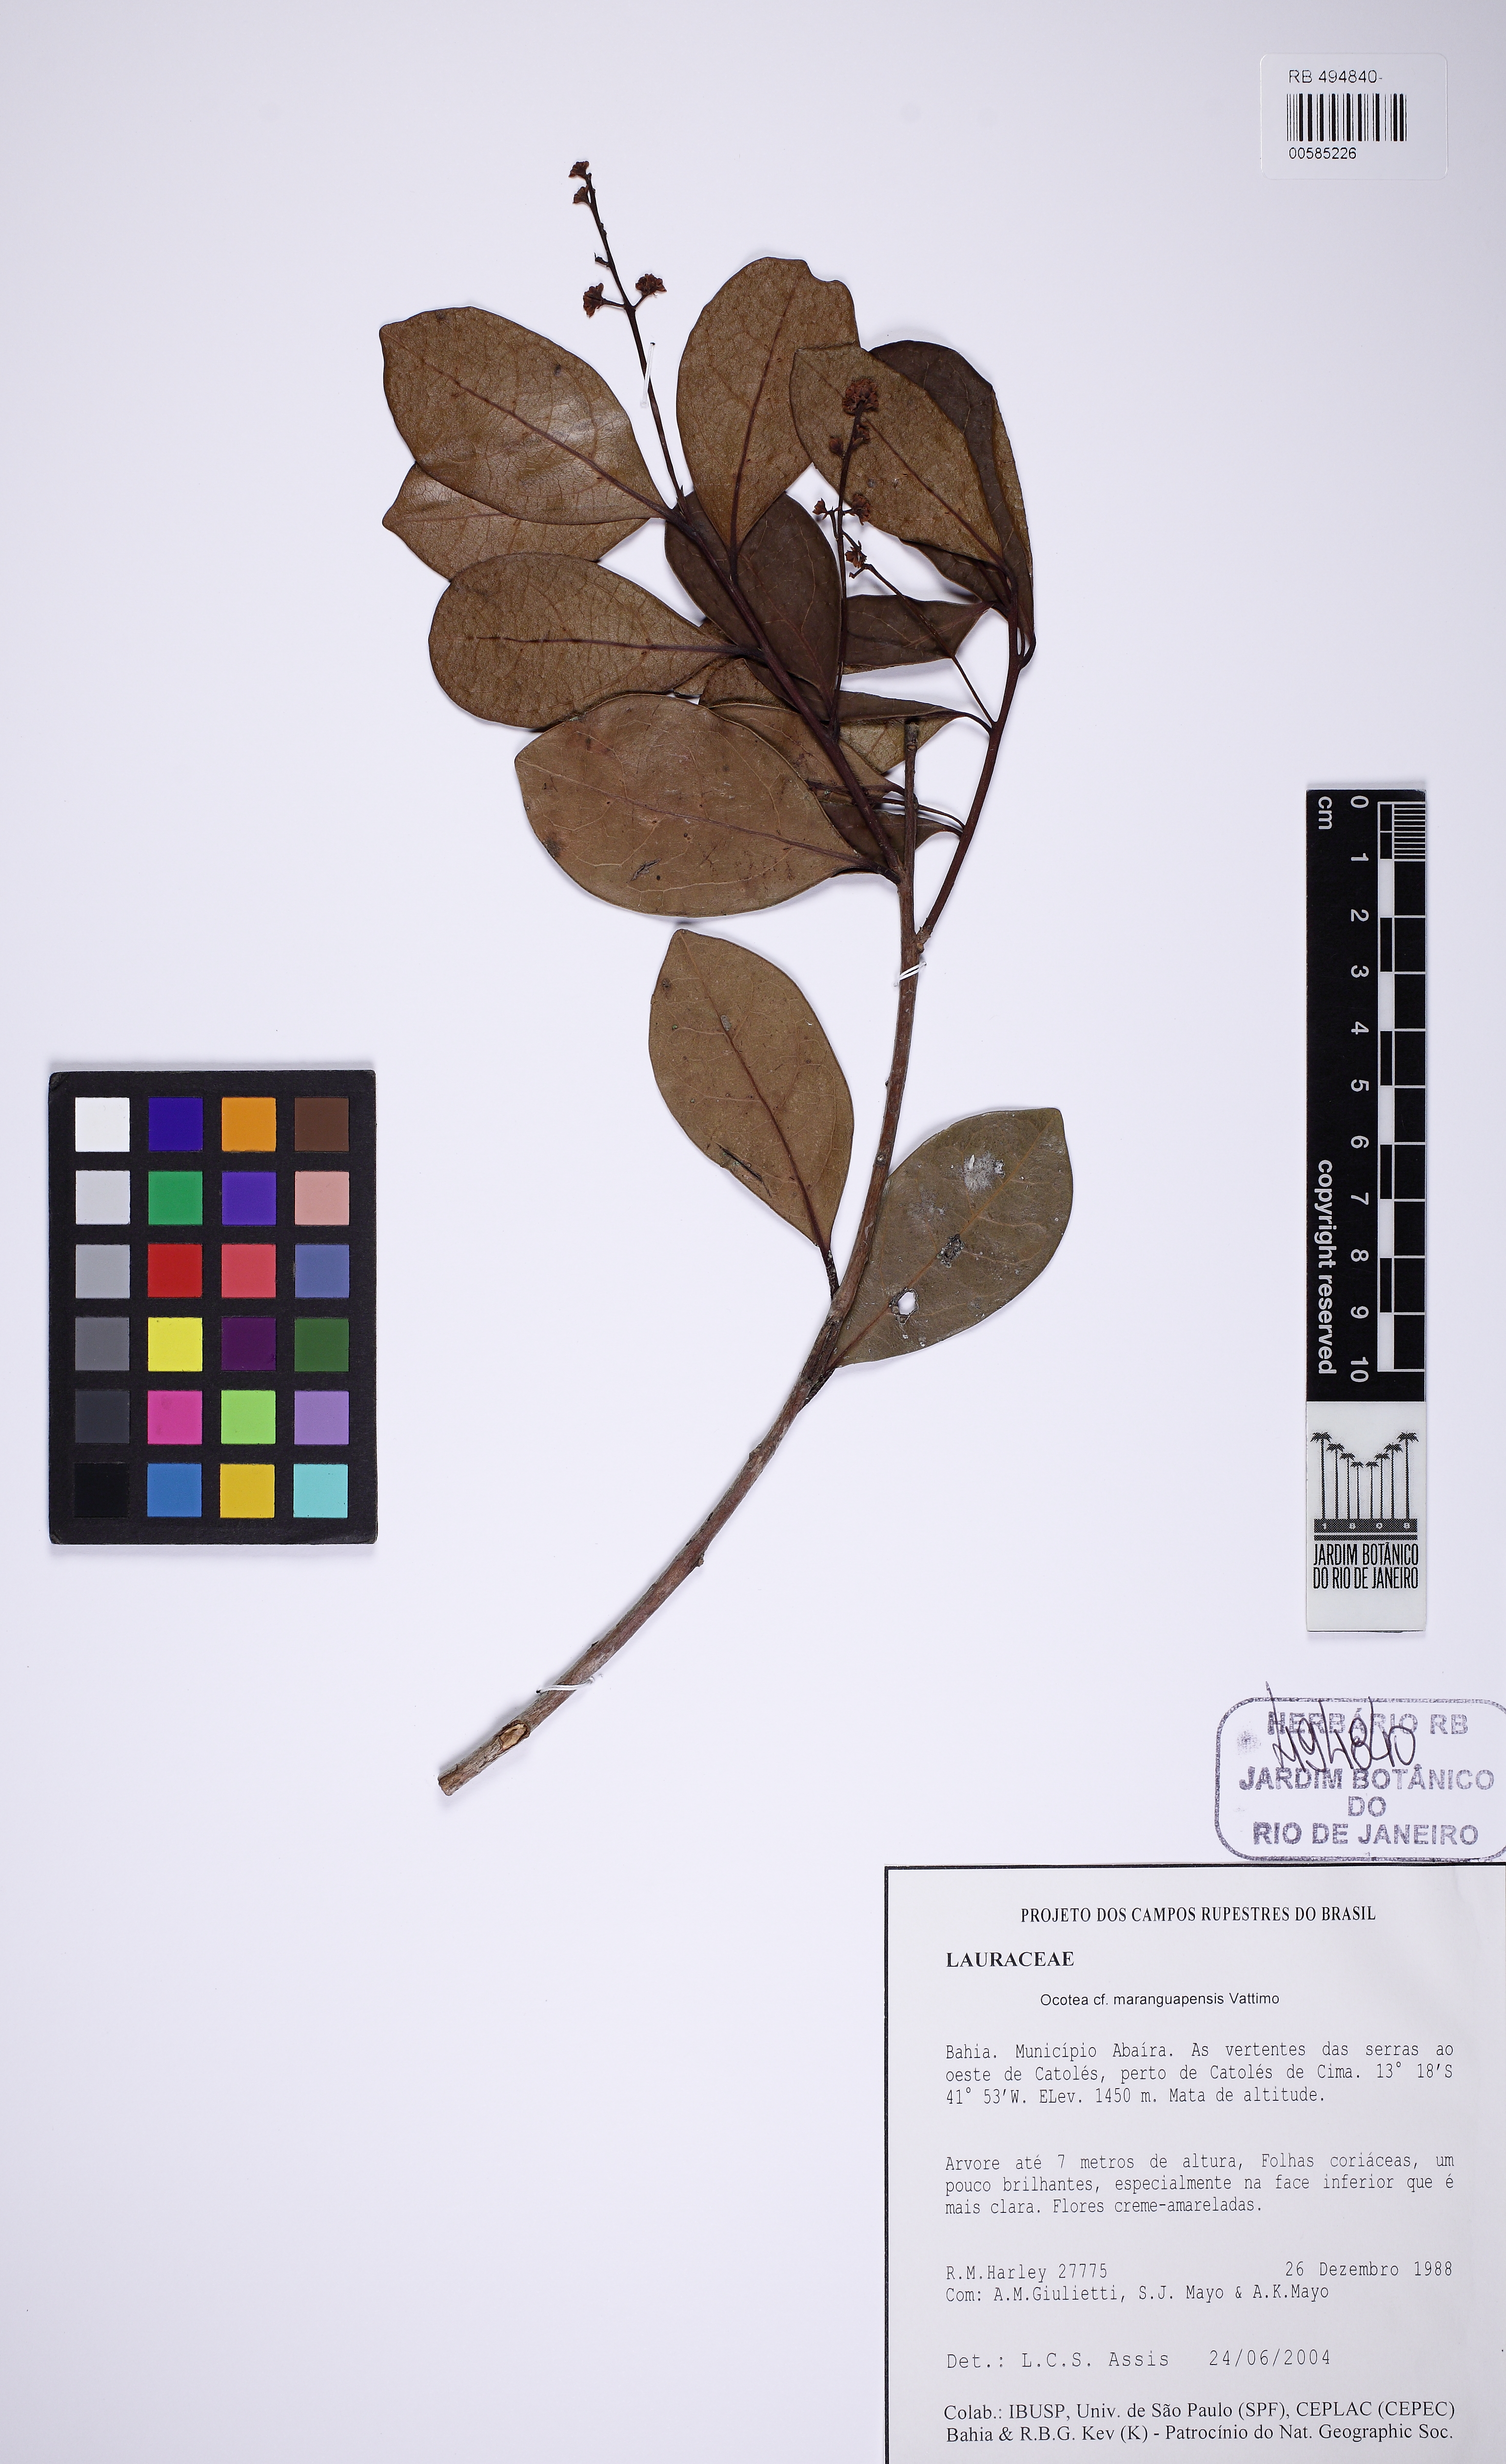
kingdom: Plantae
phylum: Tracheophyta
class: Magnoliopsida
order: Laurales
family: Lauraceae
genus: Ocotea
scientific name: Ocotea maranguapensis
